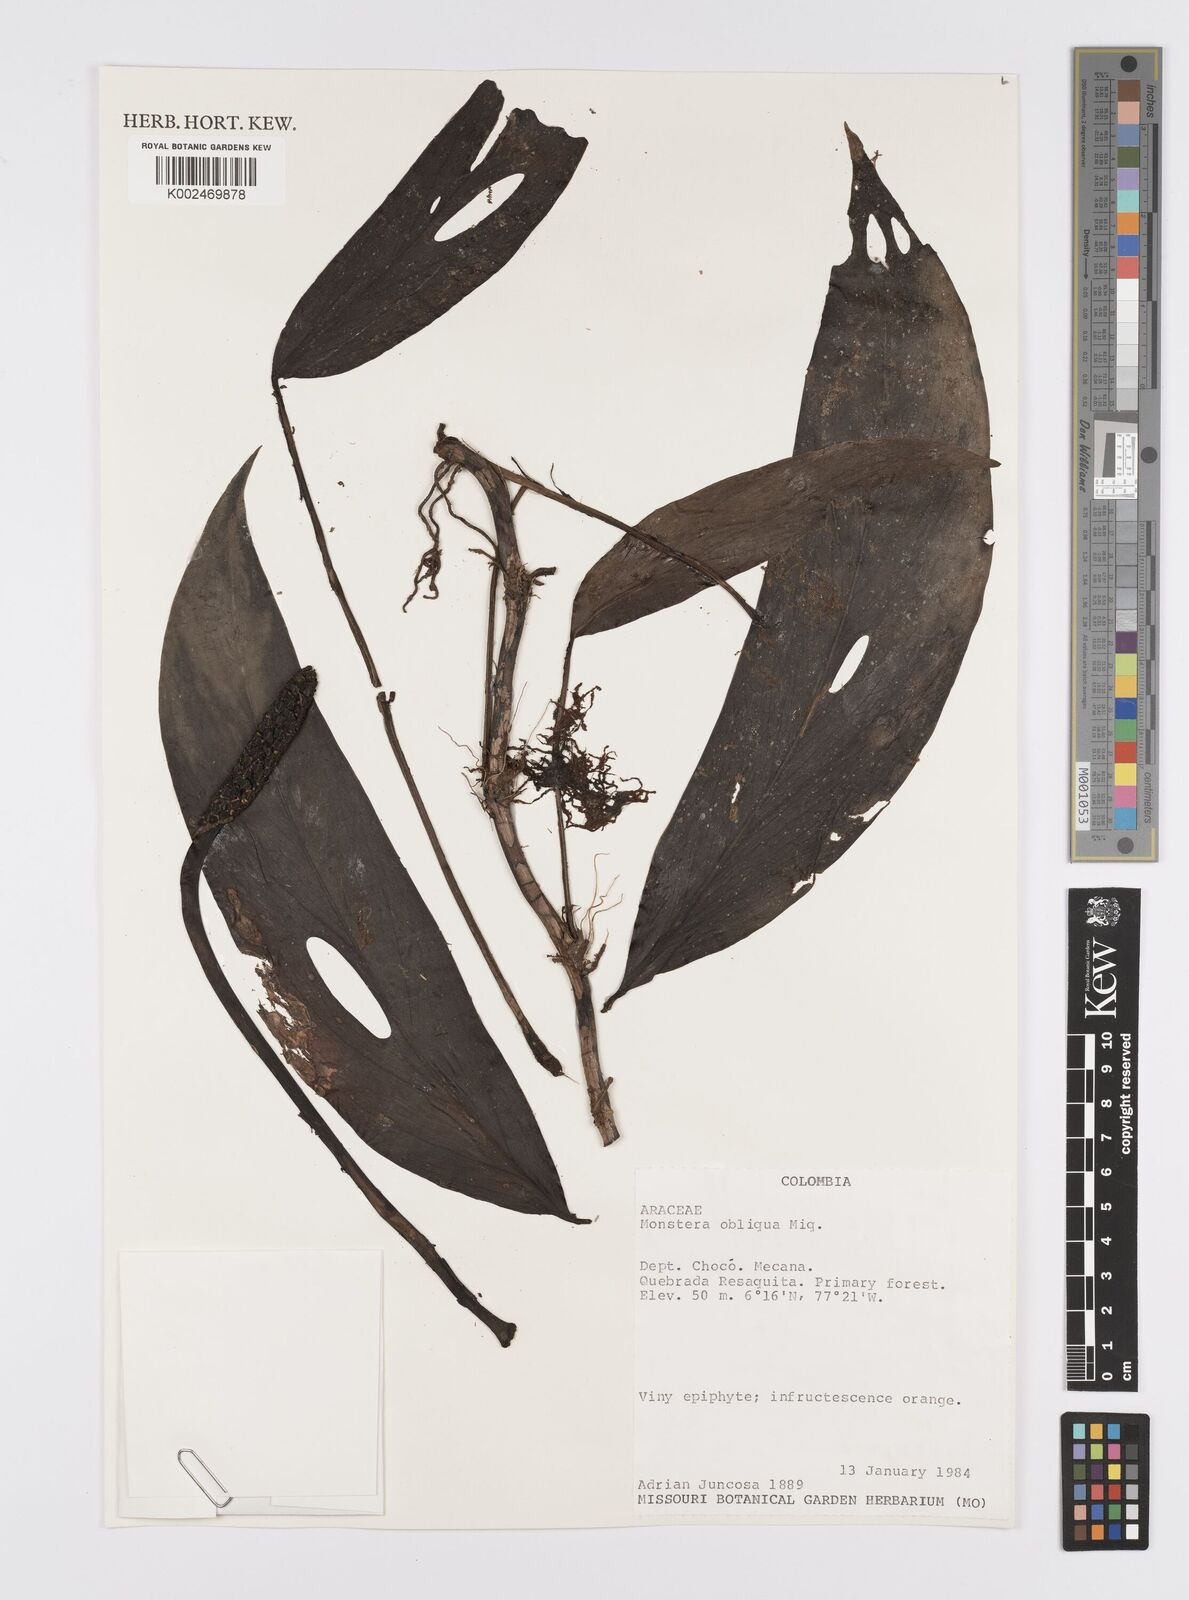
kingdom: Plantae
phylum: Tracheophyta
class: Liliopsida
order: Alismatales
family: Araceae
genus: Monstera
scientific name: Monstera obliqua
